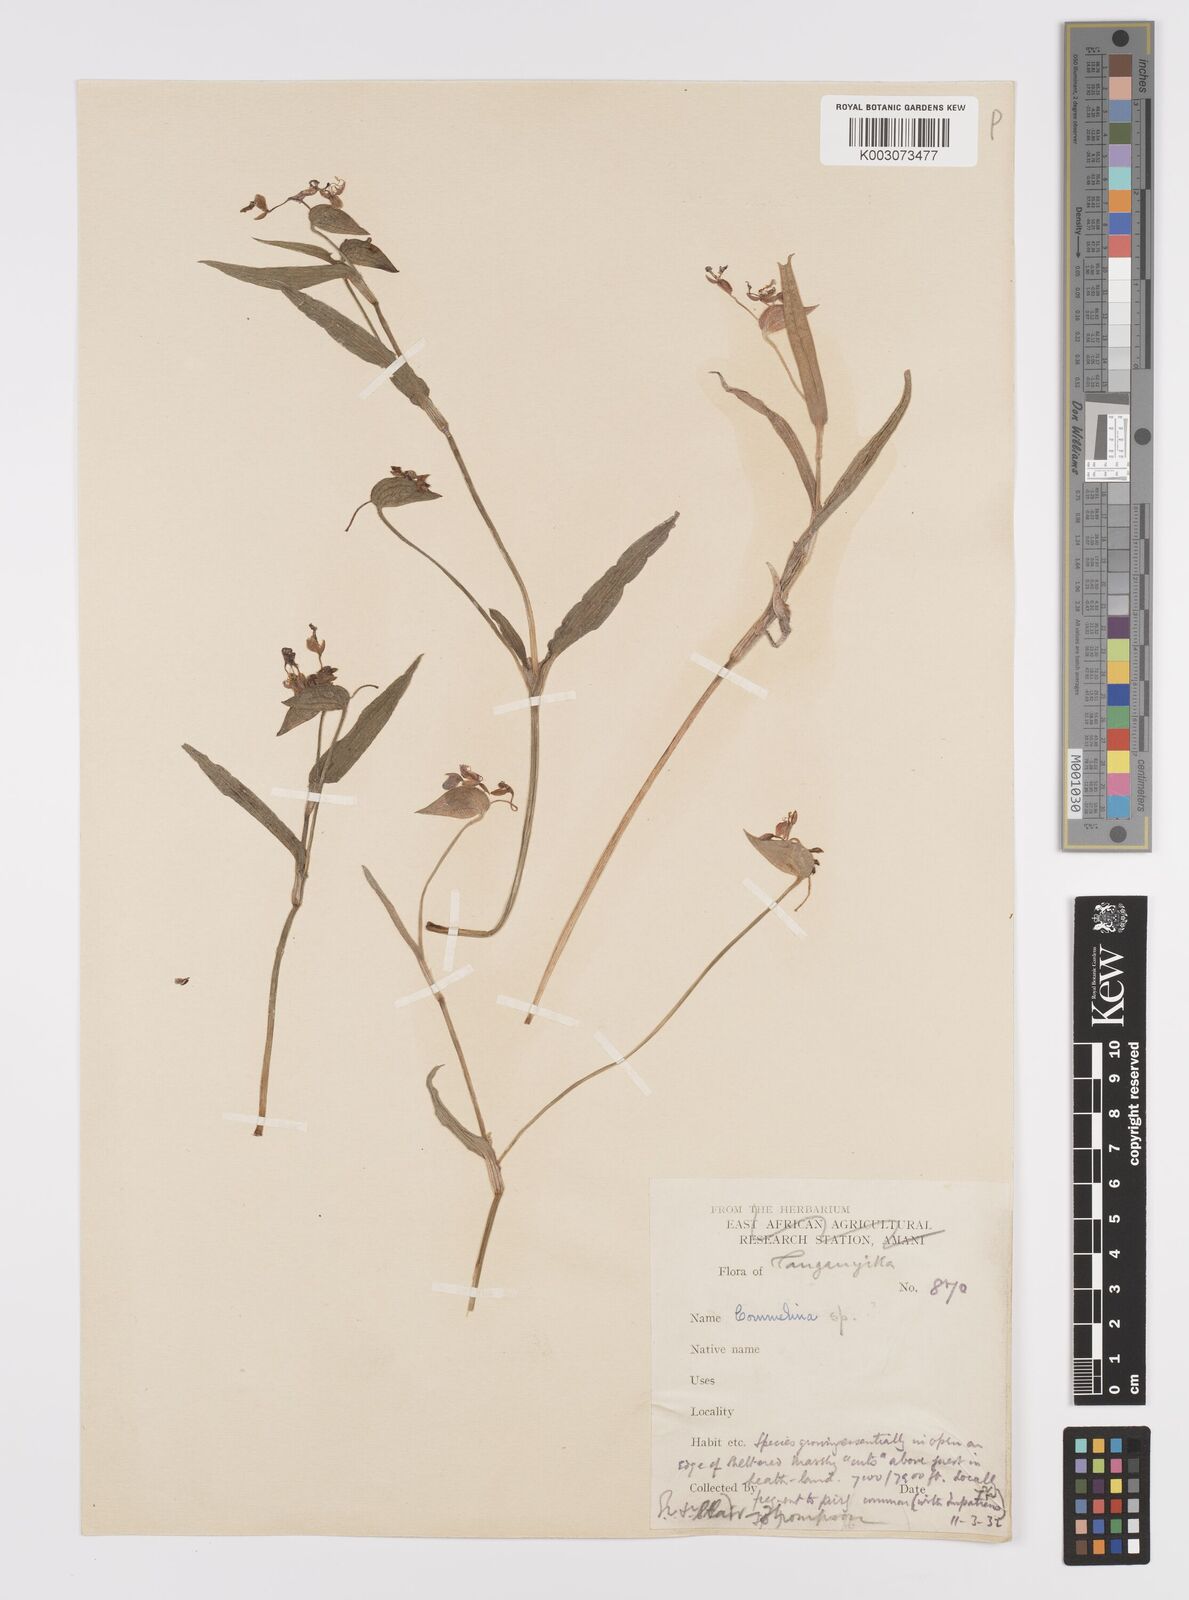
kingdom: Plantae
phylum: Tracheophyta
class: Liliopsida
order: Commelinales
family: Commelinaceae
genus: Commelina
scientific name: Commelina kituloensis
